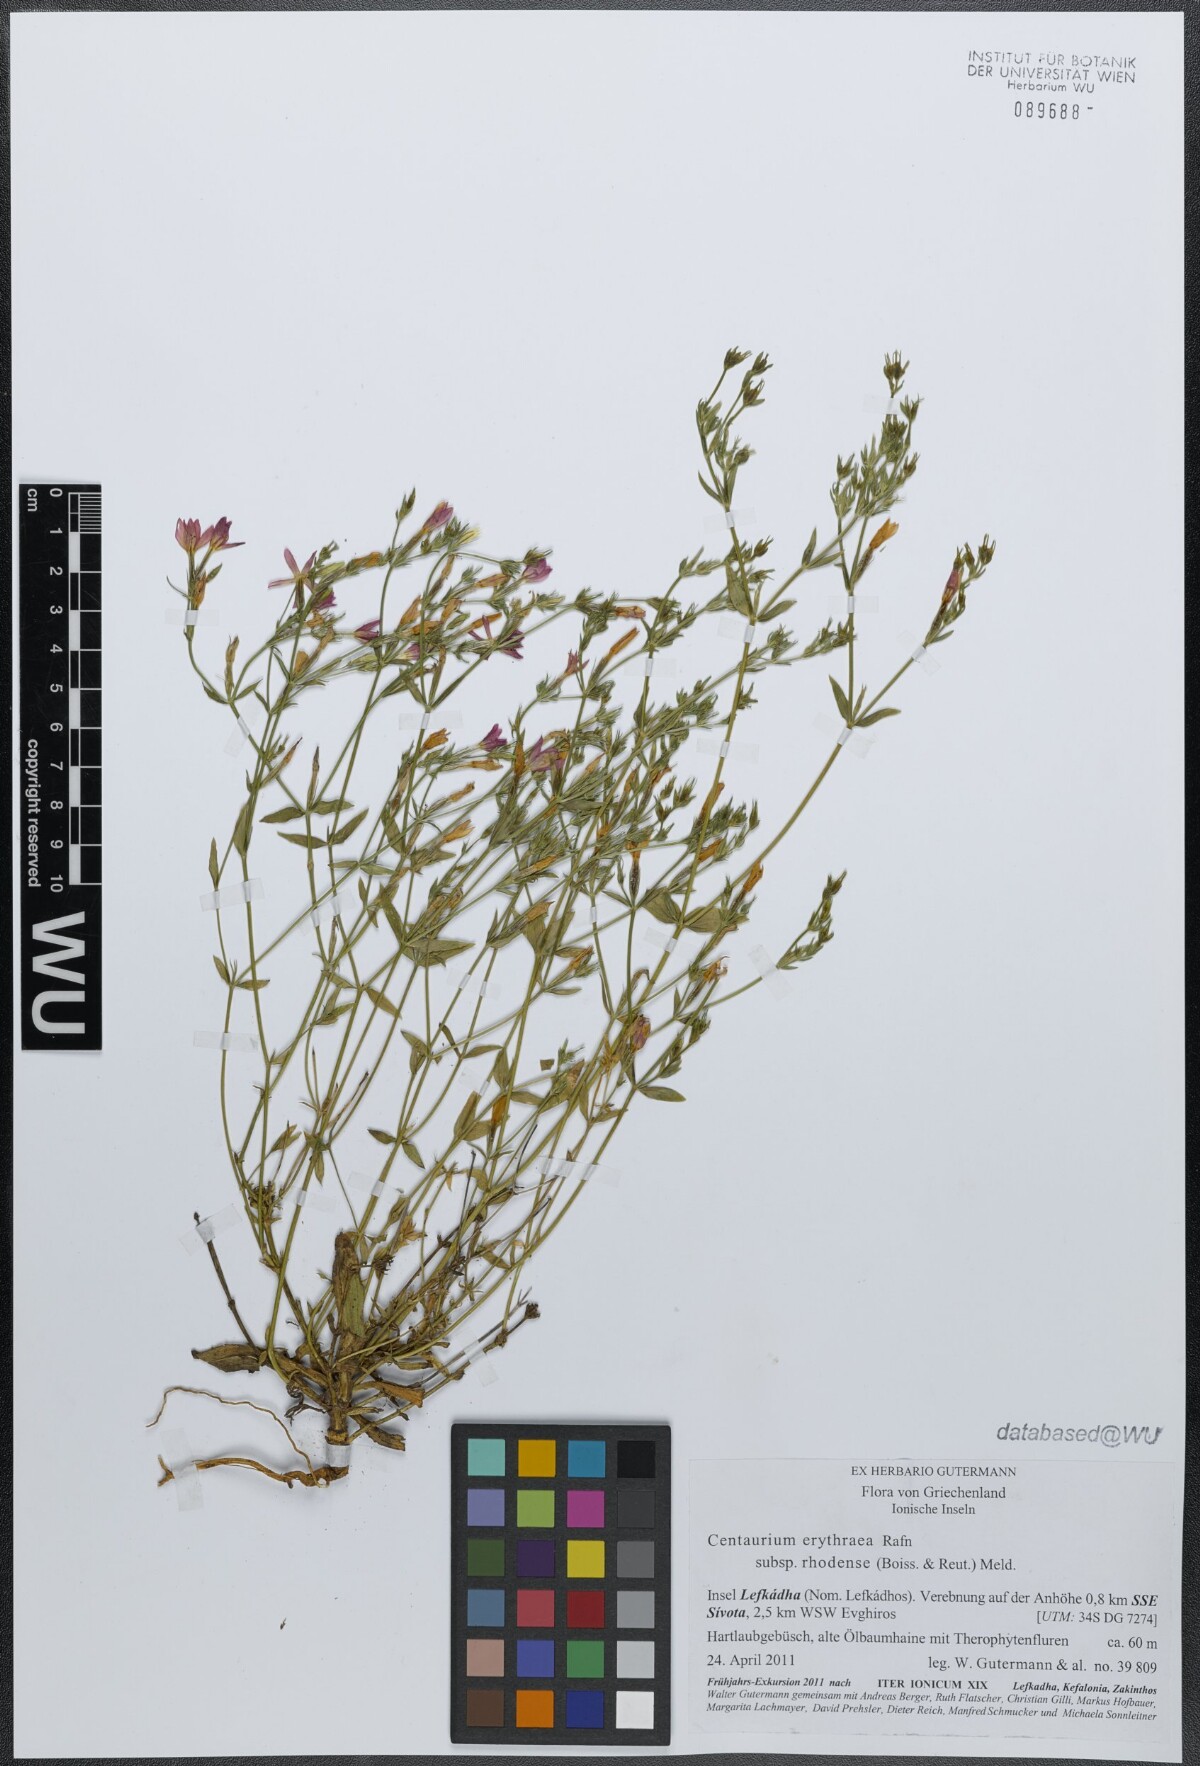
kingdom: Plantae
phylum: Tracheophyta
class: Magnoliopsida
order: Gentianales
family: Gentianaceae
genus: Centaurium
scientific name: Centaurium erythraea
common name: Common centaury
